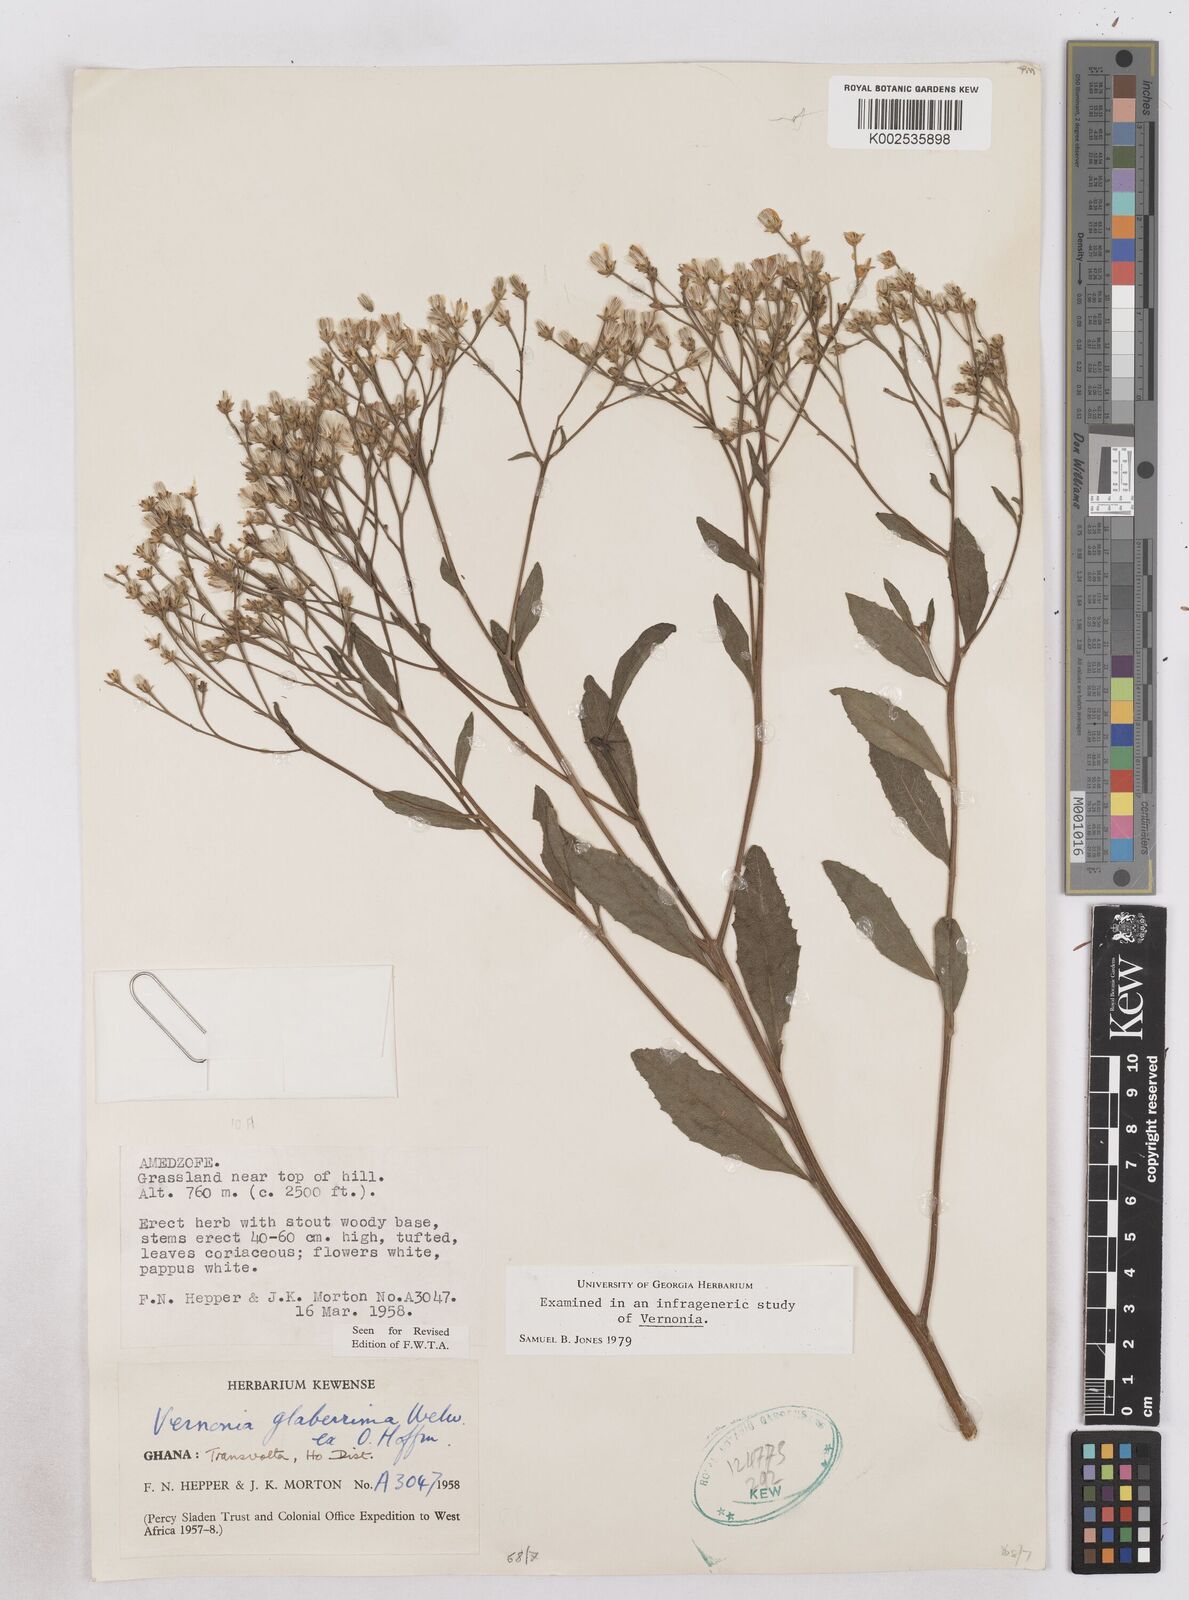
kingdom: Plantae
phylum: Tracheophyta
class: Magnoliopsida
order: Asterales
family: Asteraceae
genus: Gymnanthemum
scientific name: Gymnanthemum glaberrimum
